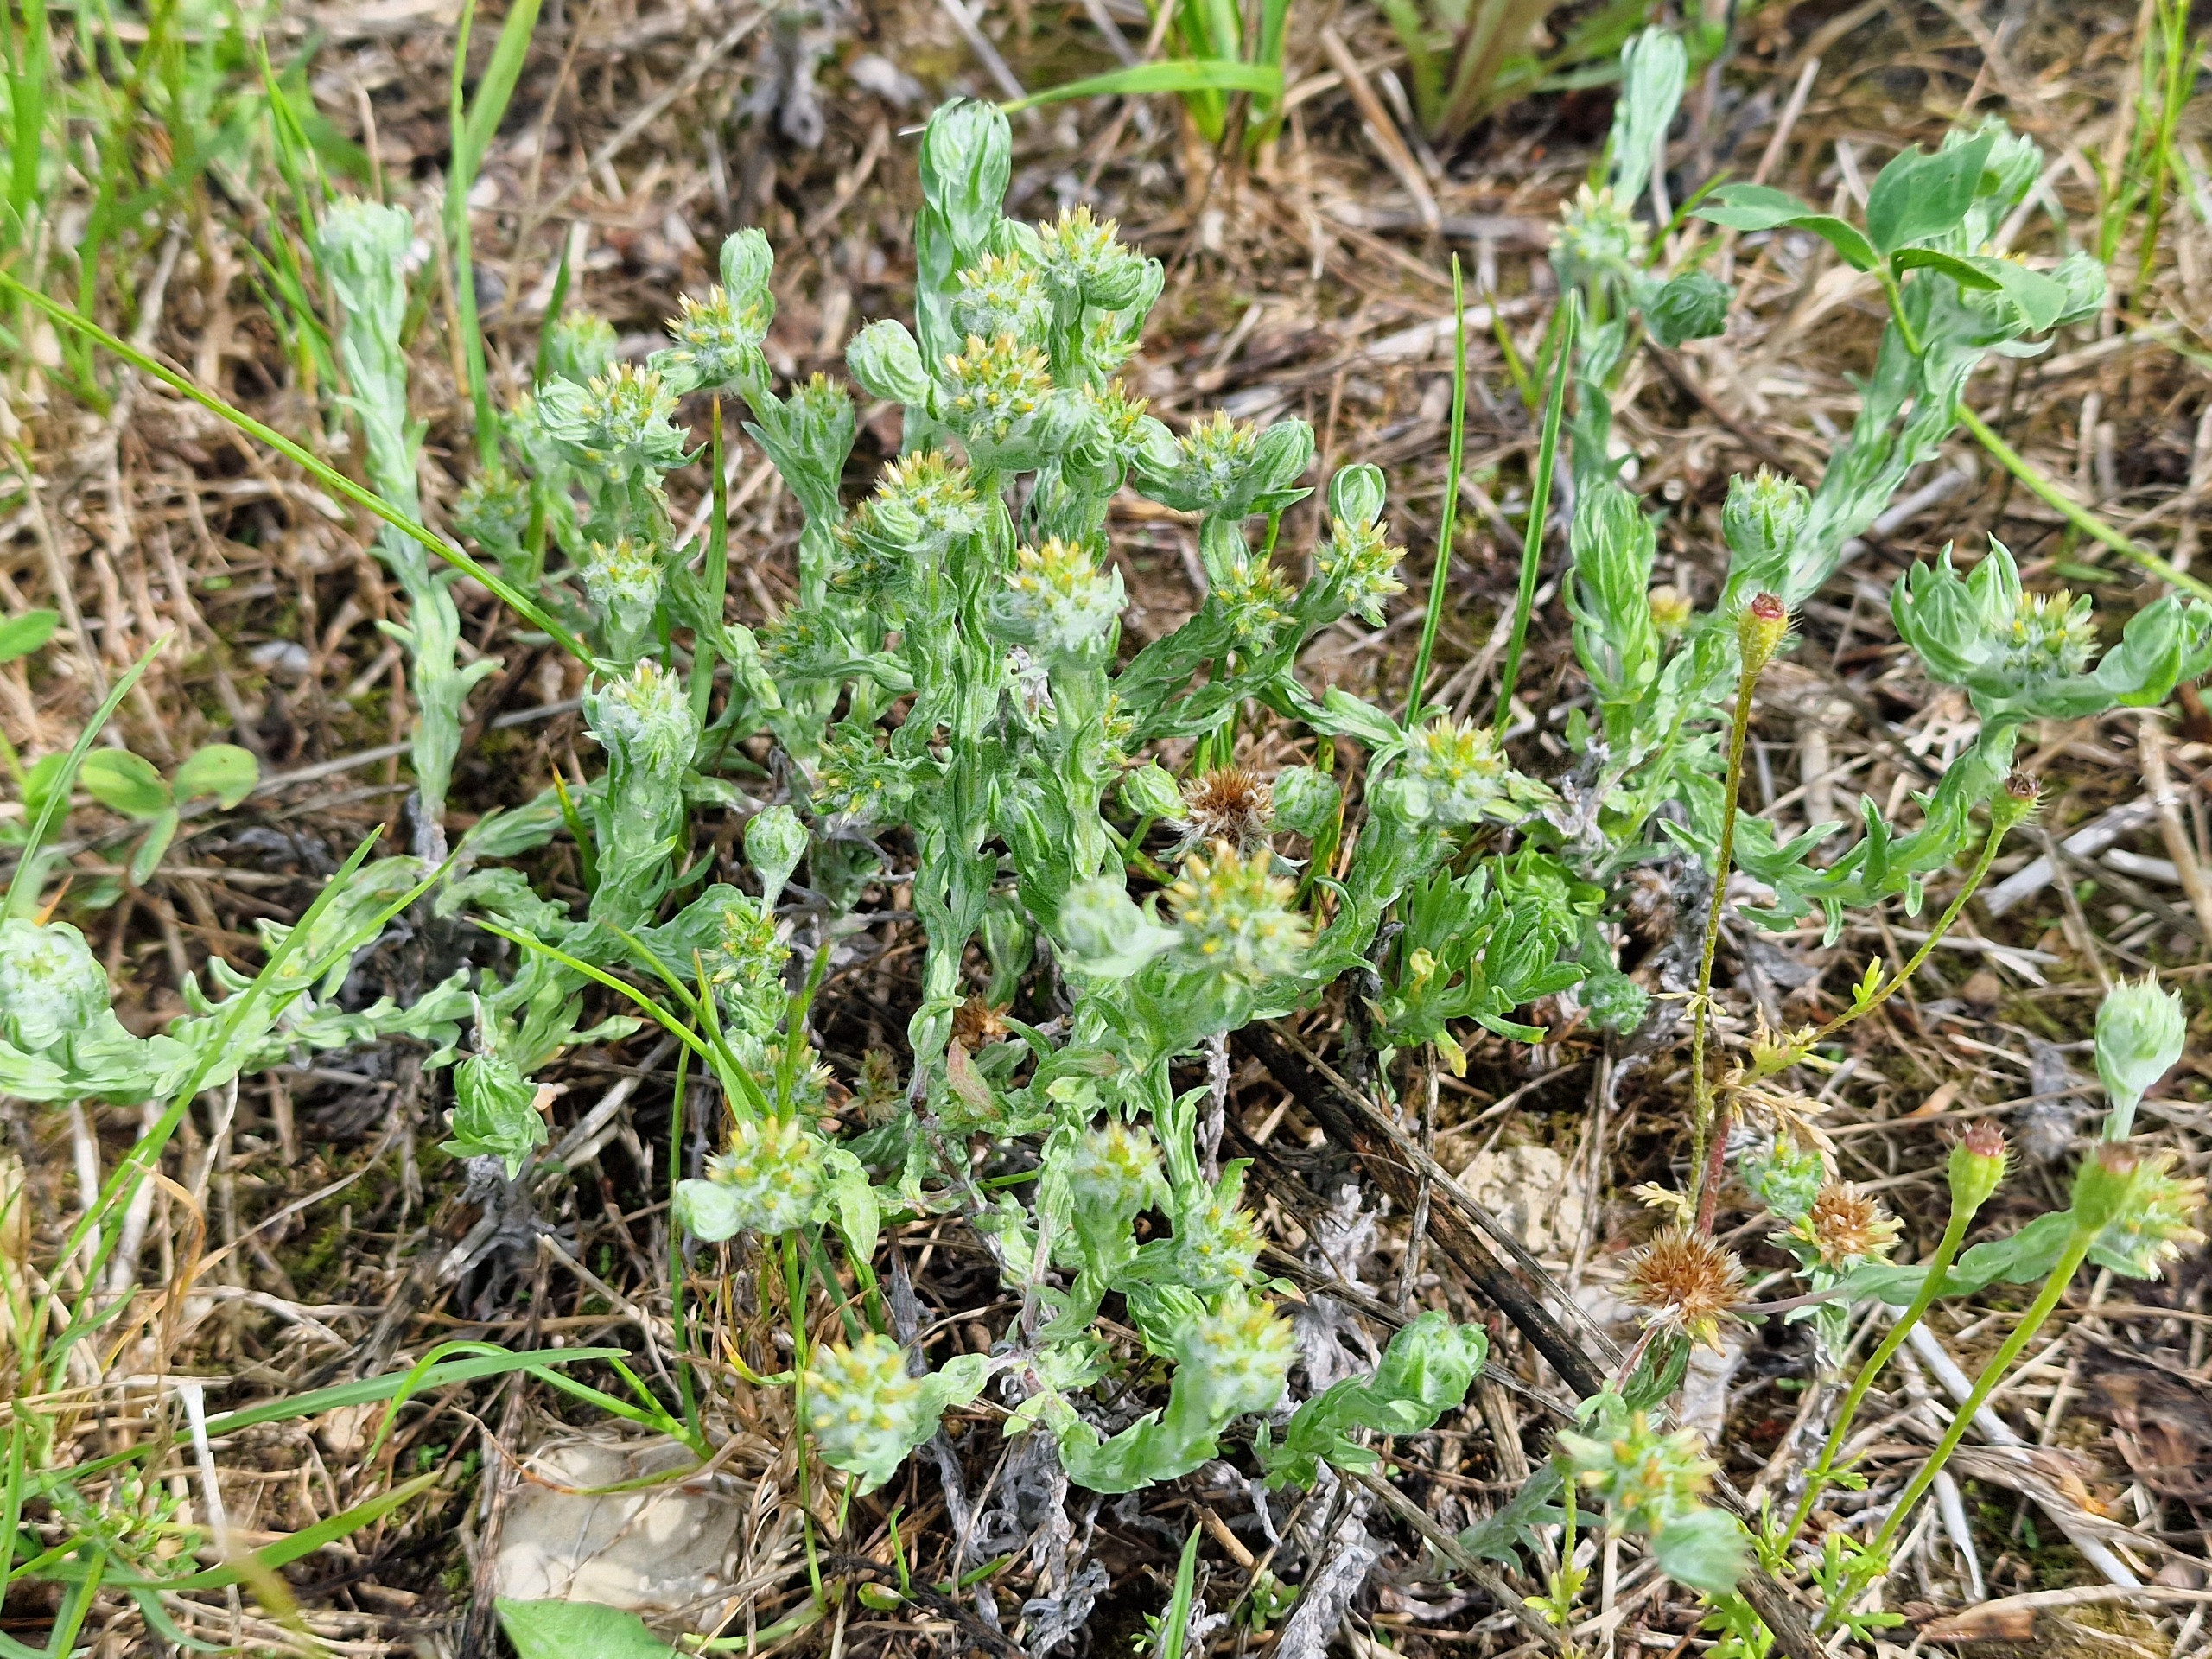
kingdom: Plantae
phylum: Tracheophyta
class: Magnoliopsida
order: Asterales
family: Asteraceae
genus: Filago
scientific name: Filago germanica
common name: Kugle-museurt
